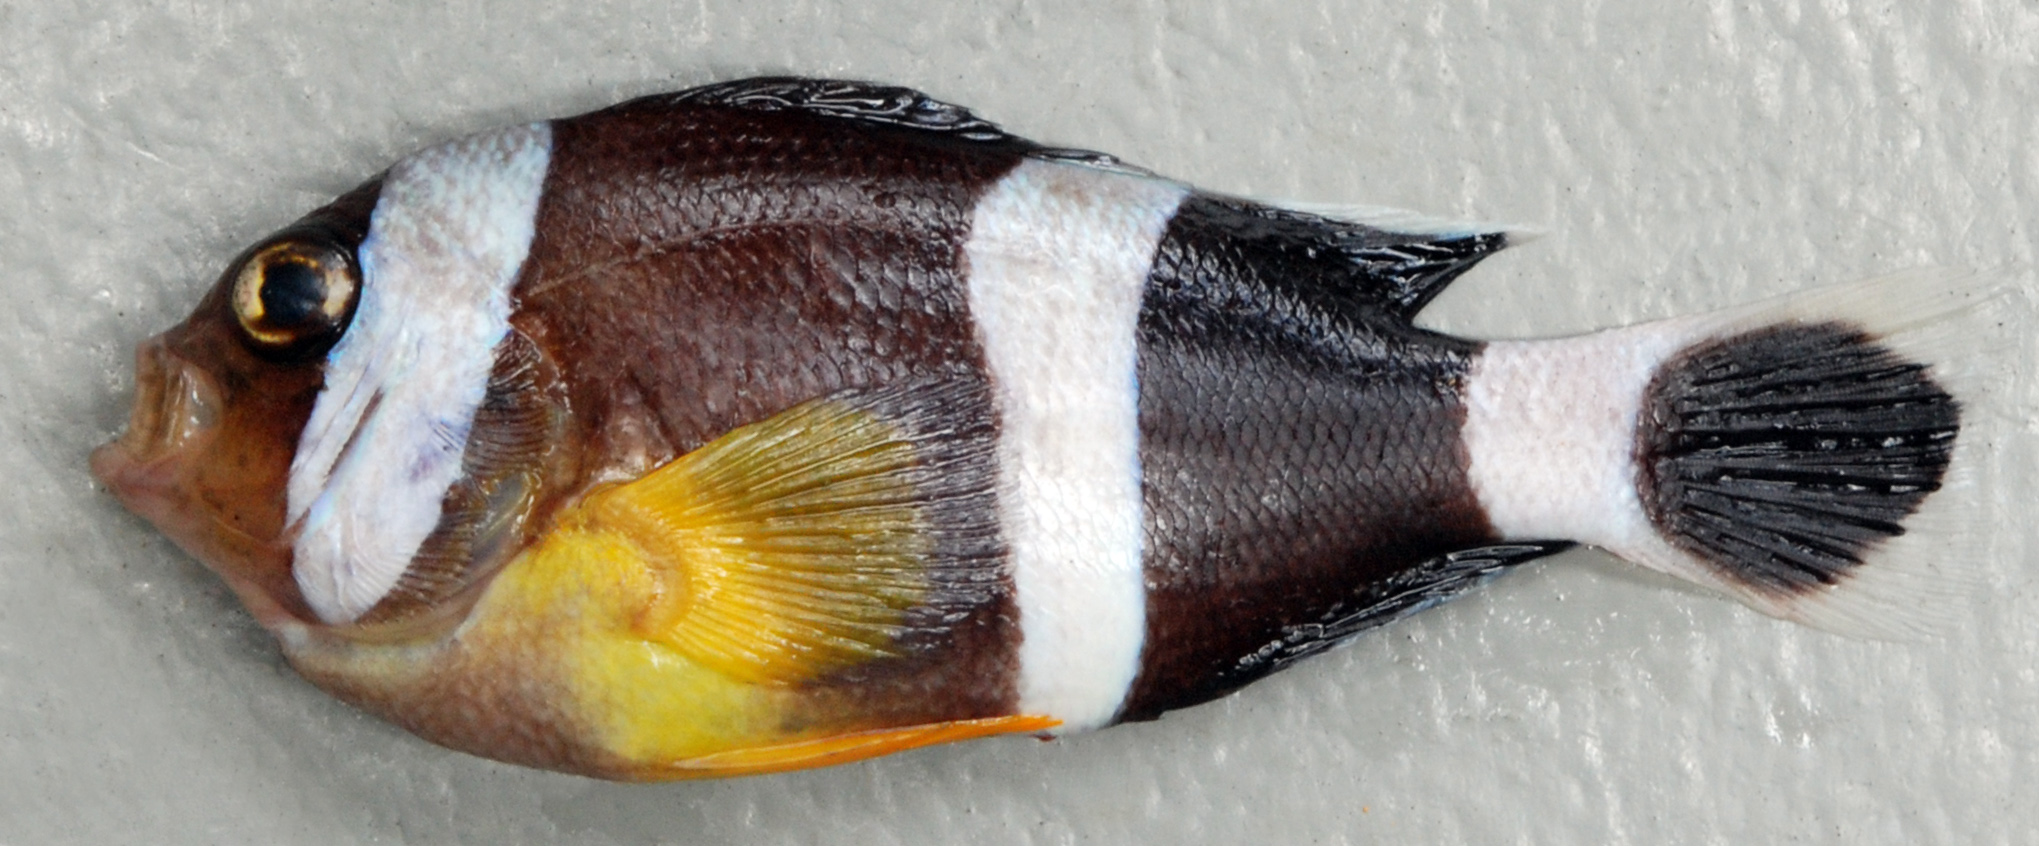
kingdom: Animalia
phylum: Chordata
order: Perciformes
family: Pomacentridae
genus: Amphiprion
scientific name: Amphiprion chrysogaster
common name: Mauritian anemonefish
